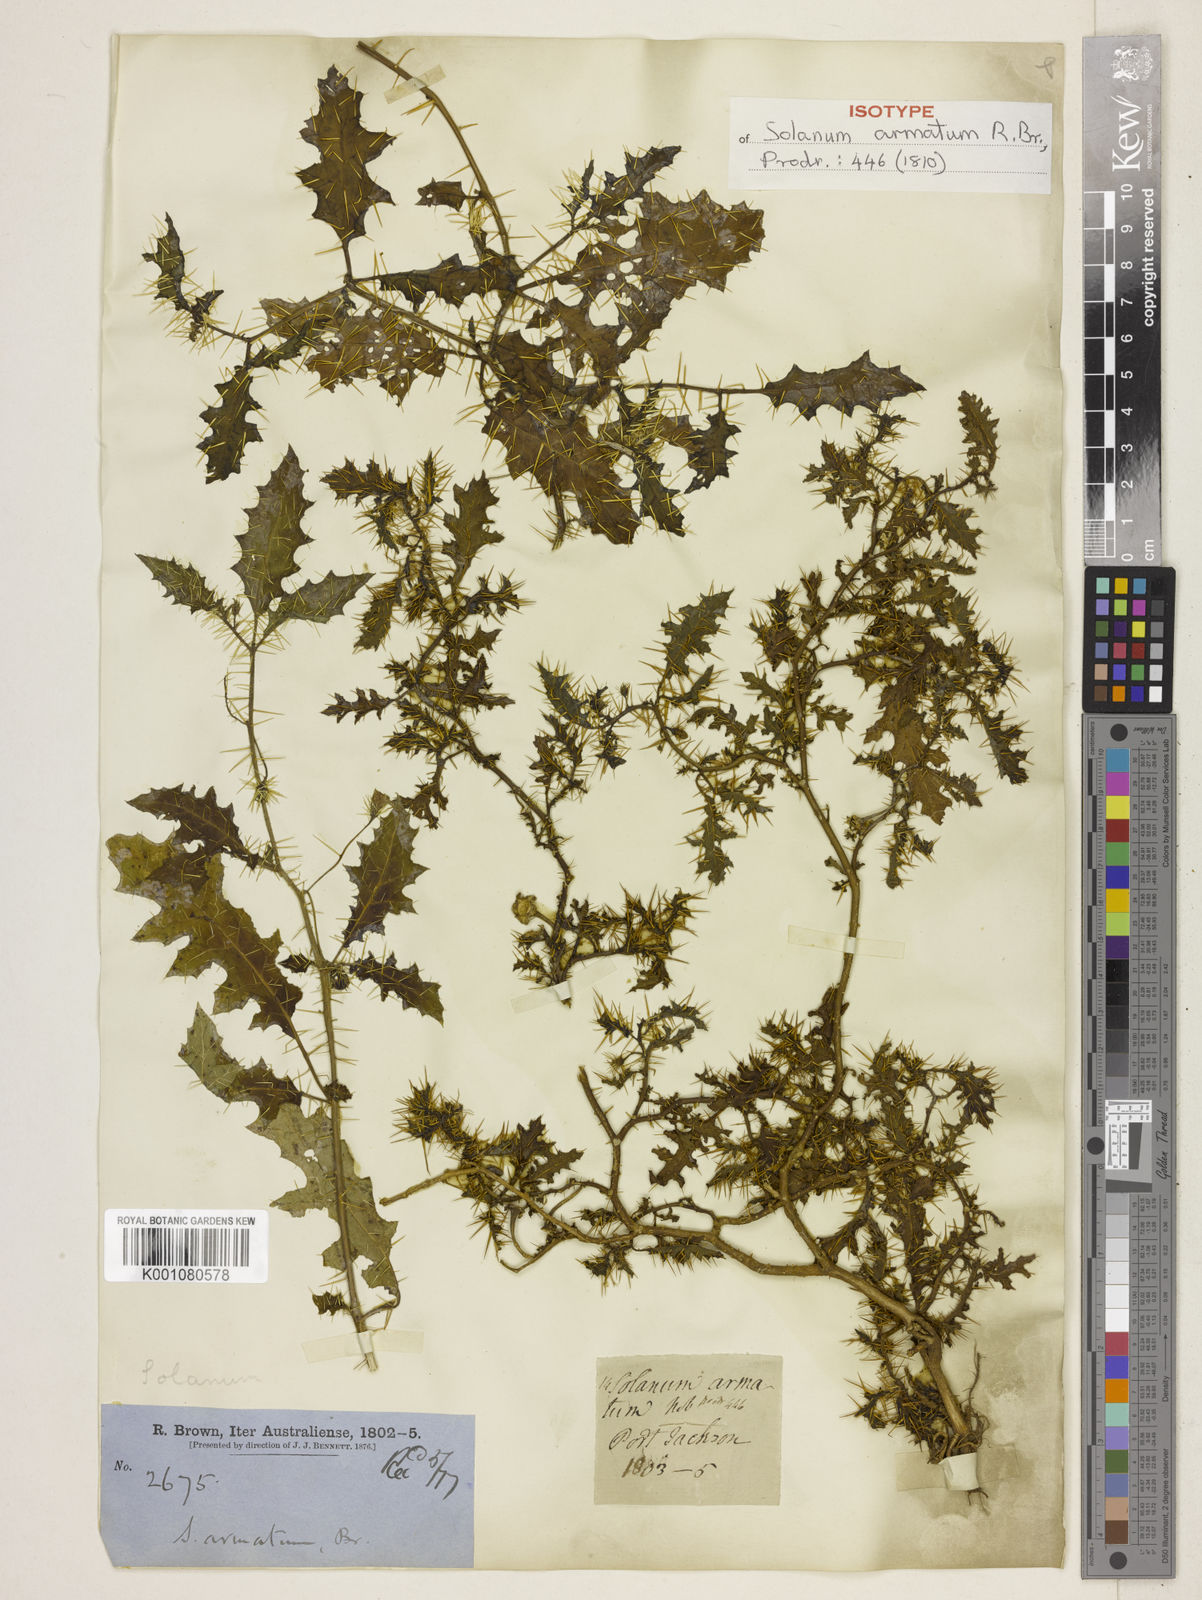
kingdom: Plantae
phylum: Tracheophyta
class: Magnoliopsida
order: Solanales
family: Solanaceae
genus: Solanum
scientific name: Solanum prinophyllum
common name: Forest nightshade
